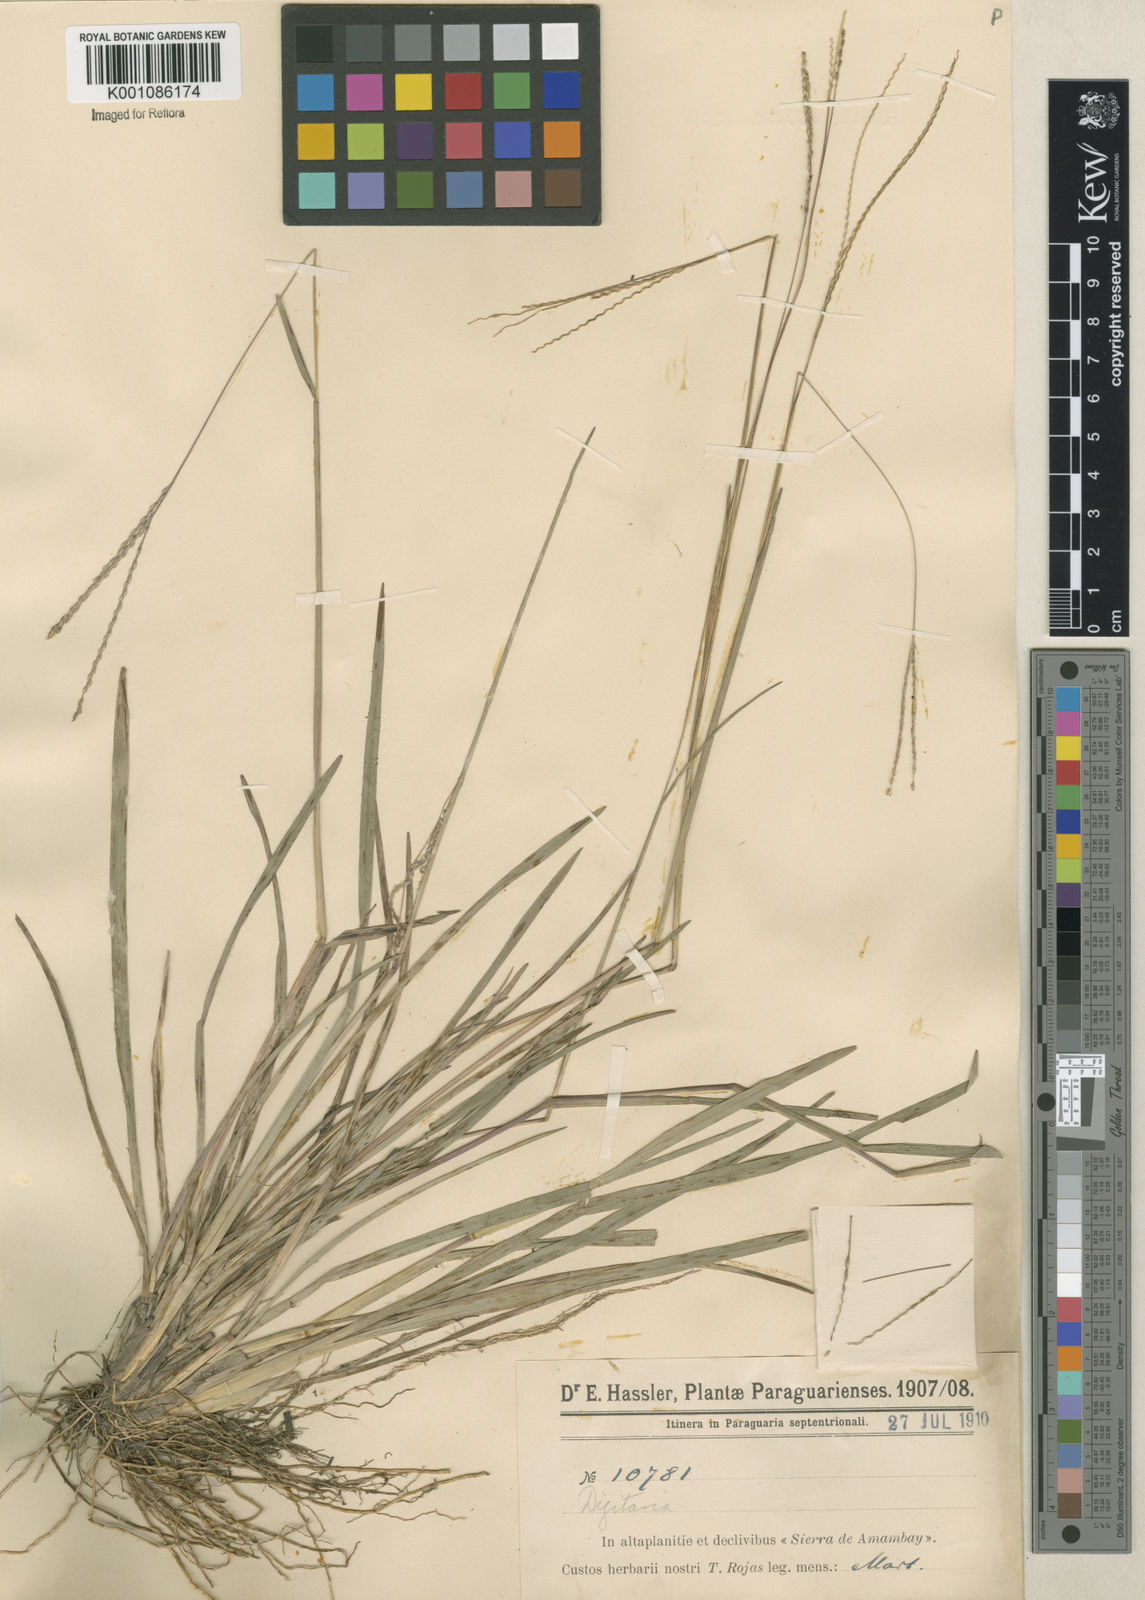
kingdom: Plantae
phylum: Tracheophyta
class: Liliopsida
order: Poales
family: Poaceae
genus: Axonopus
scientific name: Axonopus
